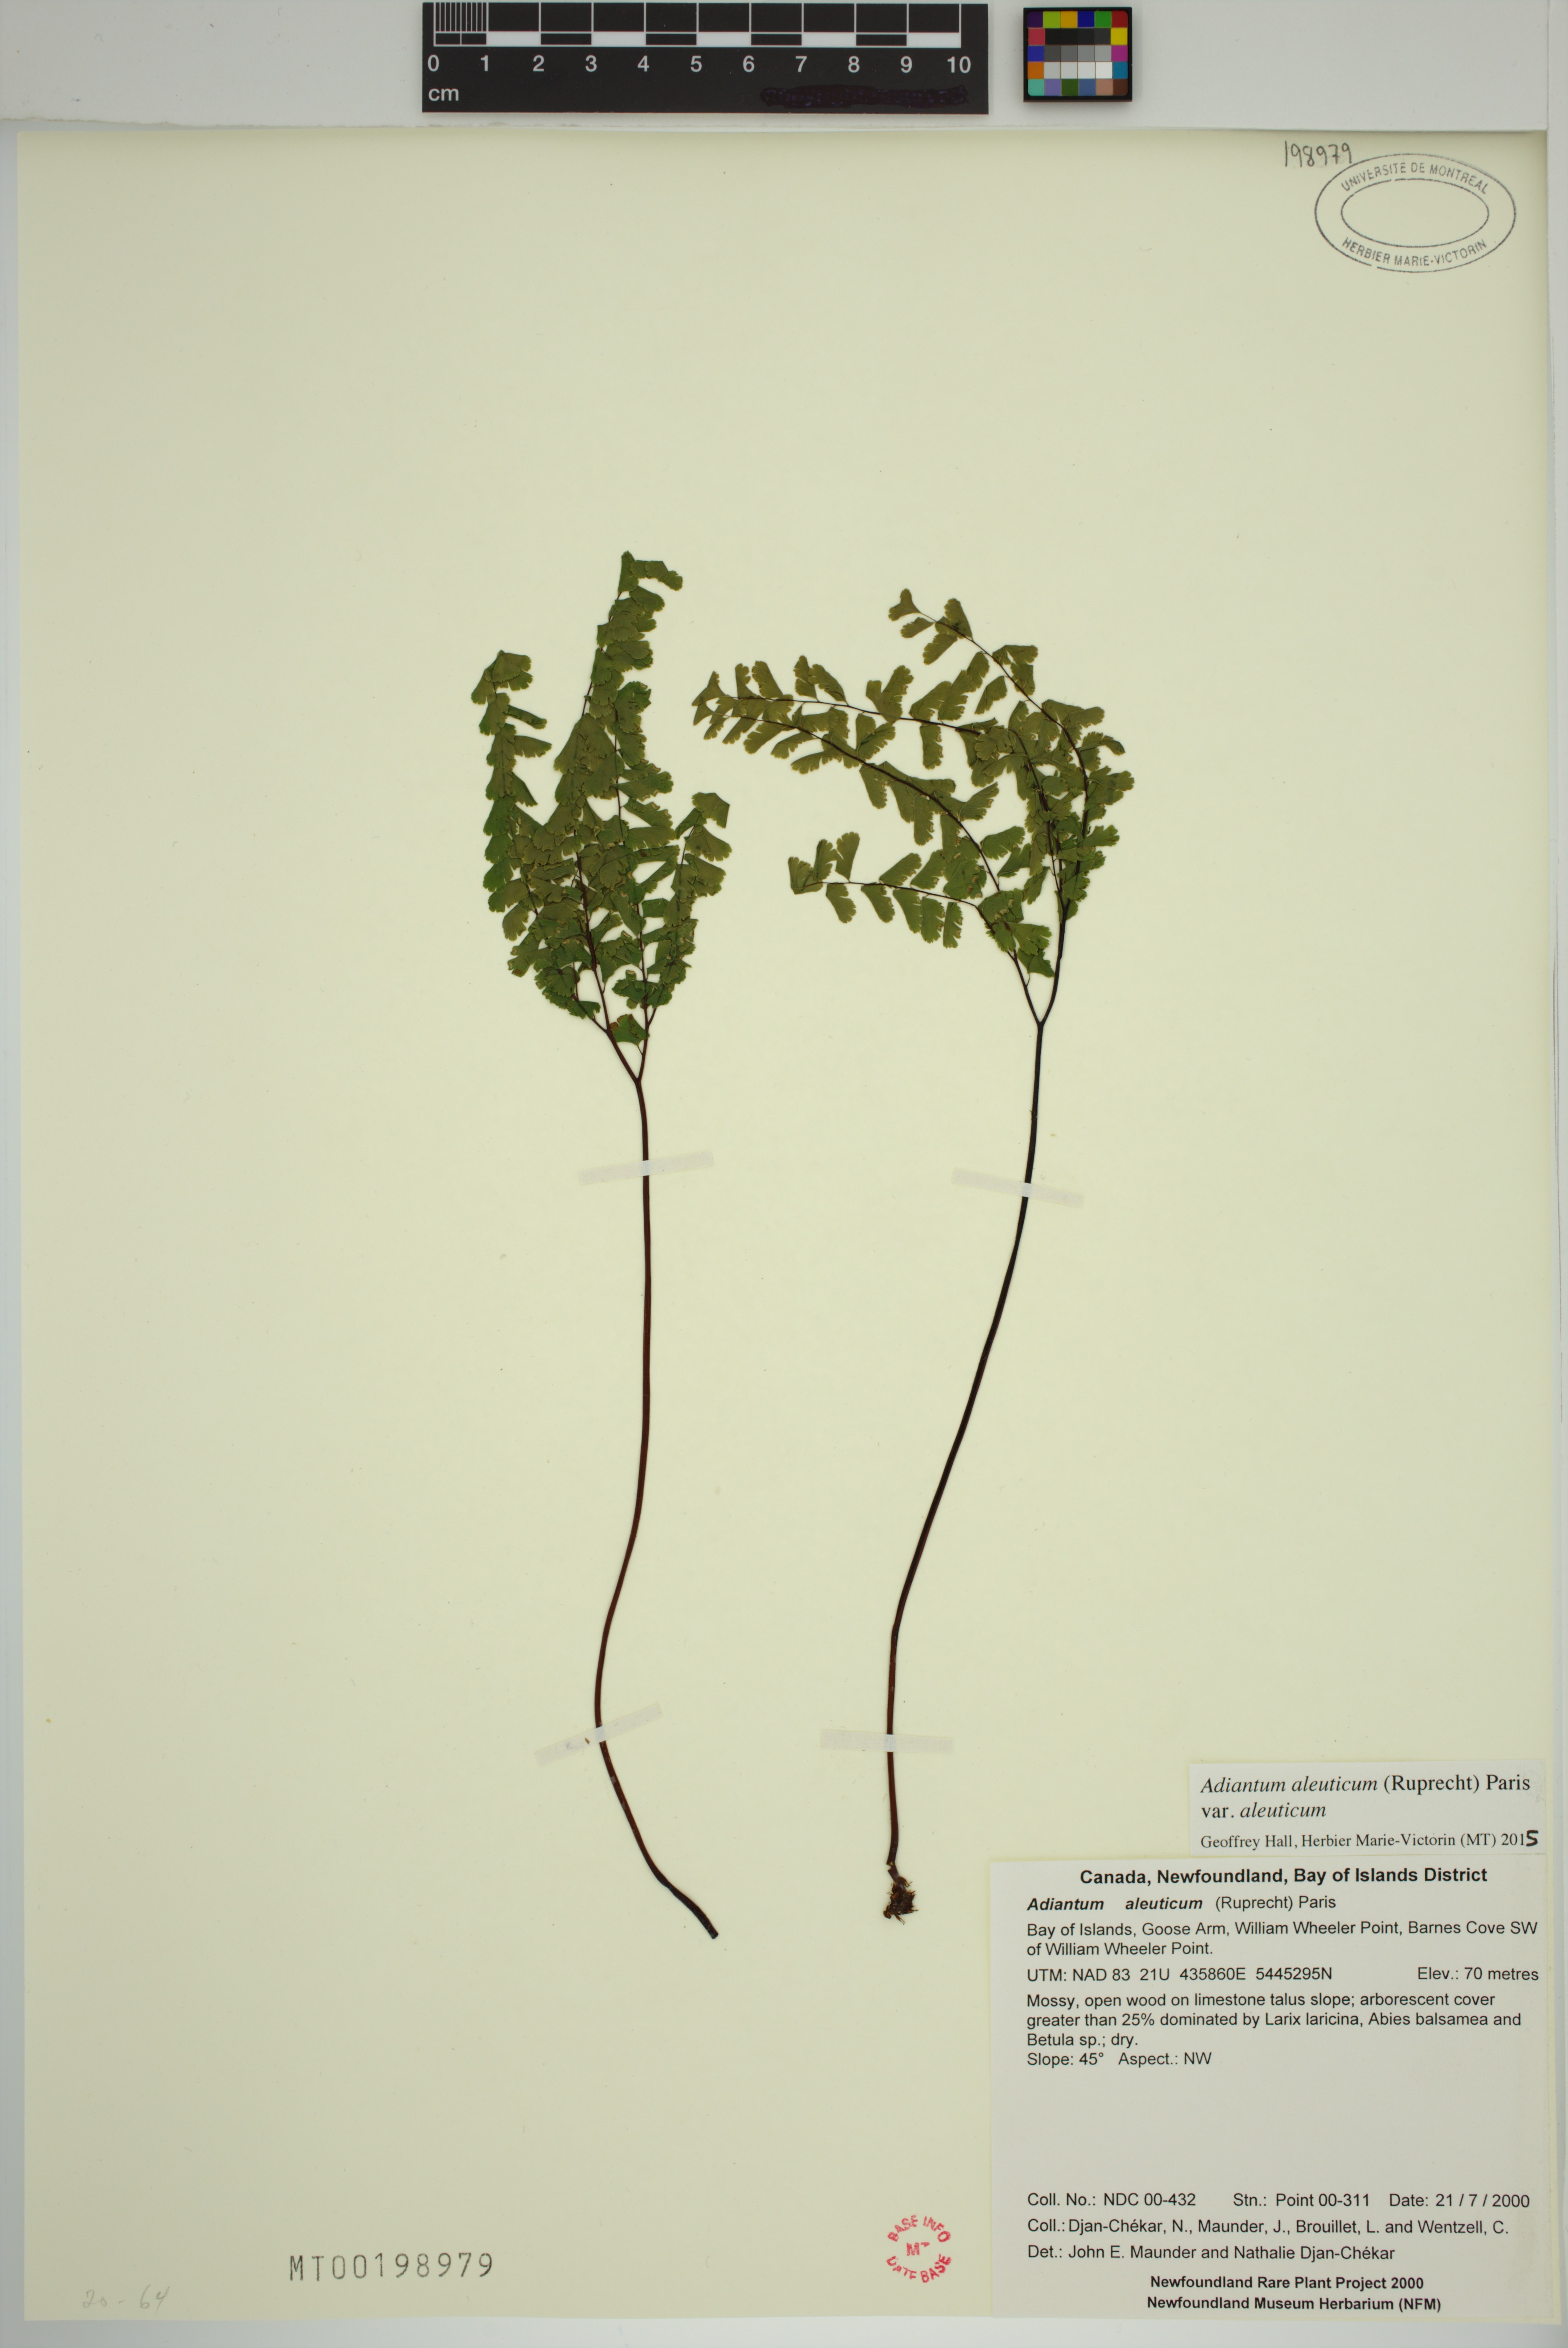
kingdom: Plantae
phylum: Tracheophyta
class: Polypodiopsida
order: Polypodiales
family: Pteridaceae
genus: Adiantum
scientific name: Adiantum aleuticum
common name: Aleutian maidenhair fern
